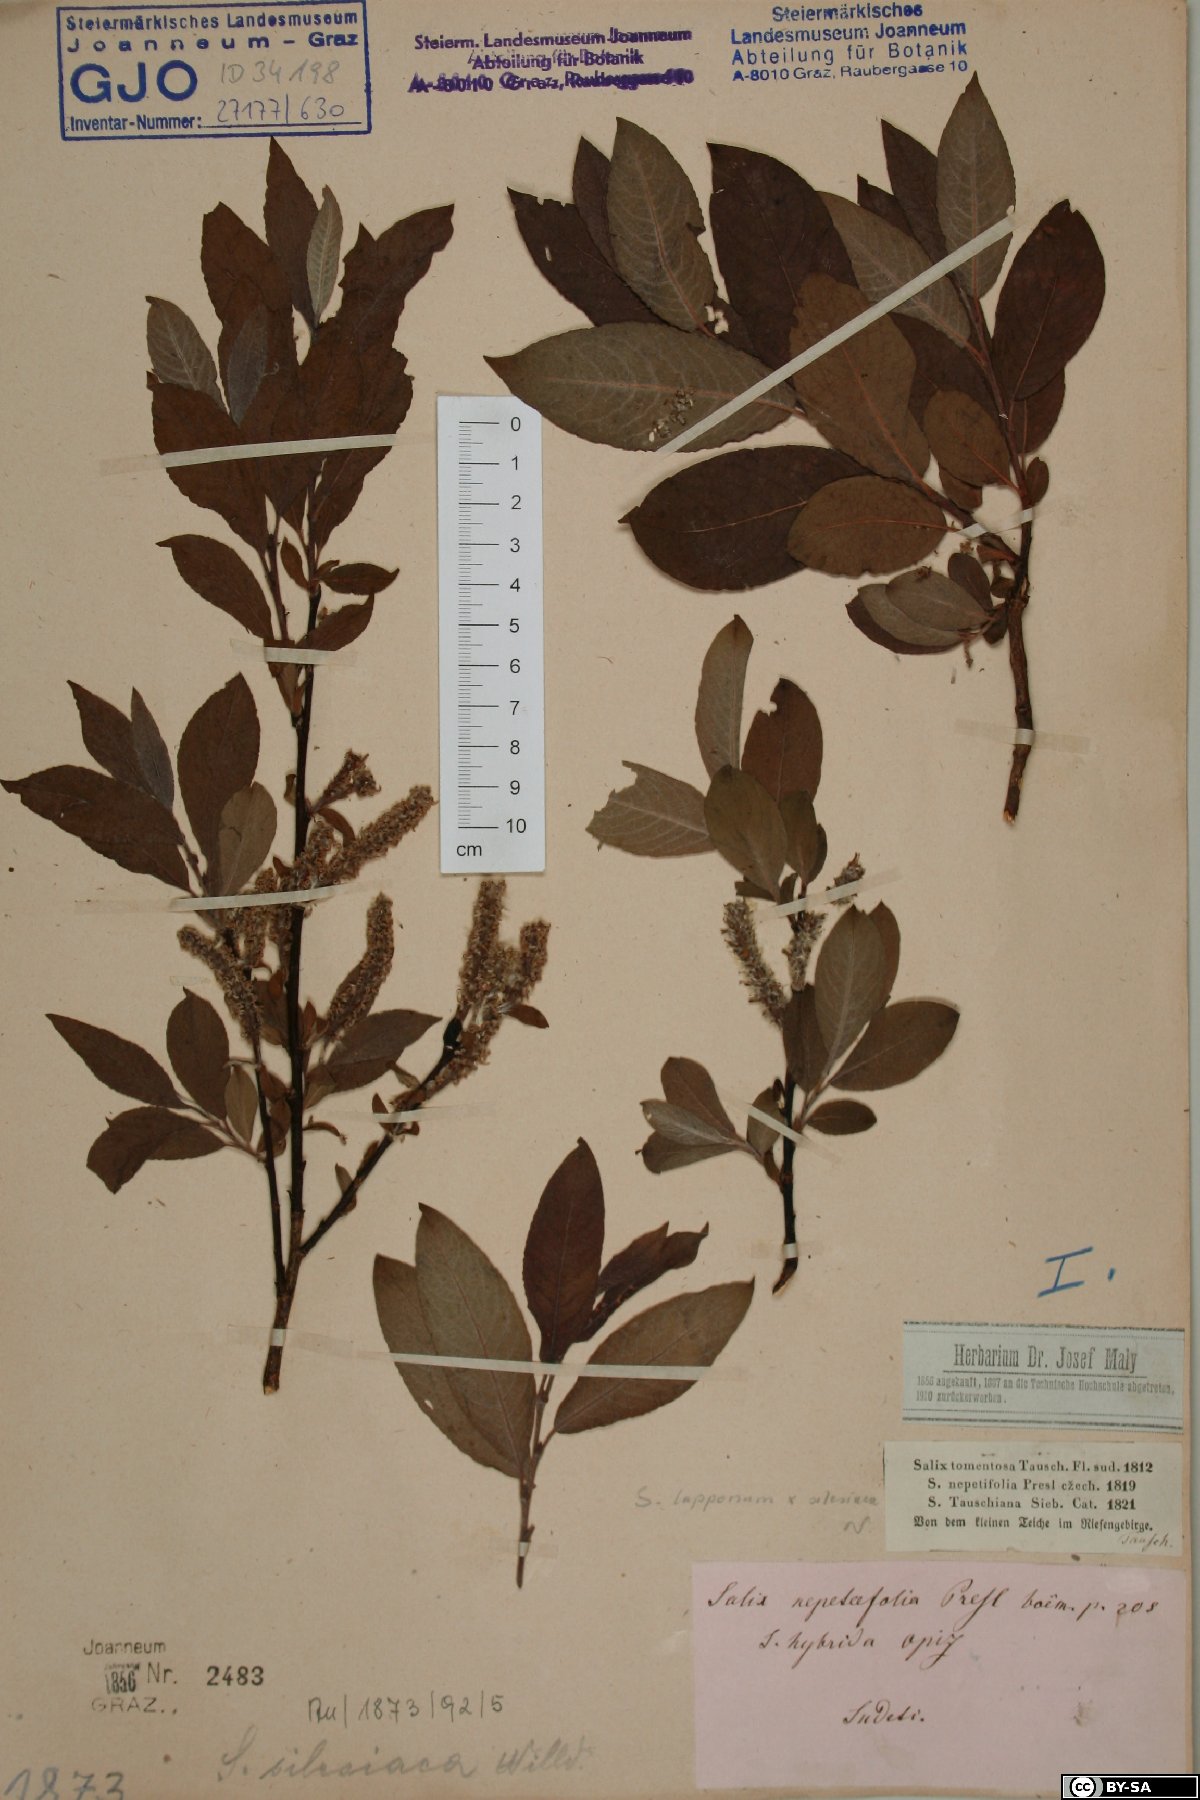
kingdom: Plantae
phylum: Tracheophyta
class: Magnoliopsida
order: Malpighiales
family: Salicaceae
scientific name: Salicaceae
